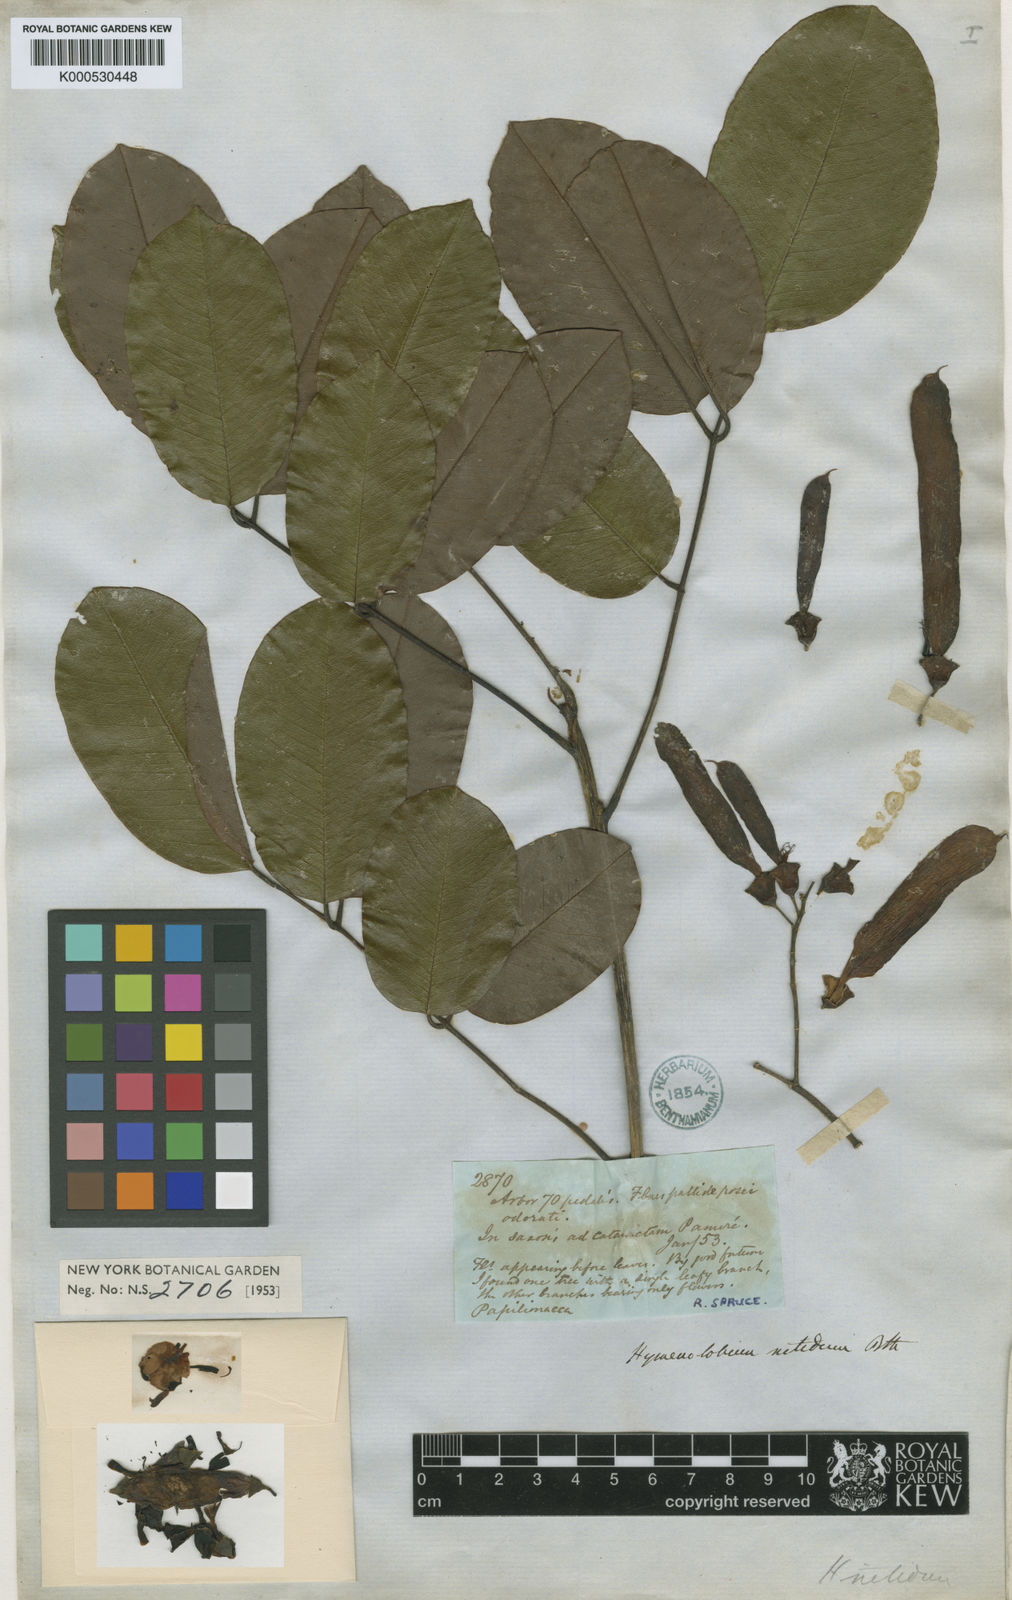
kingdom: Plantae
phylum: Tracheophyta
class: Magnoliopsida
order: Fabales
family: Fabaceae
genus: Hymenolobium
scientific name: Hymenolobium nitidum
